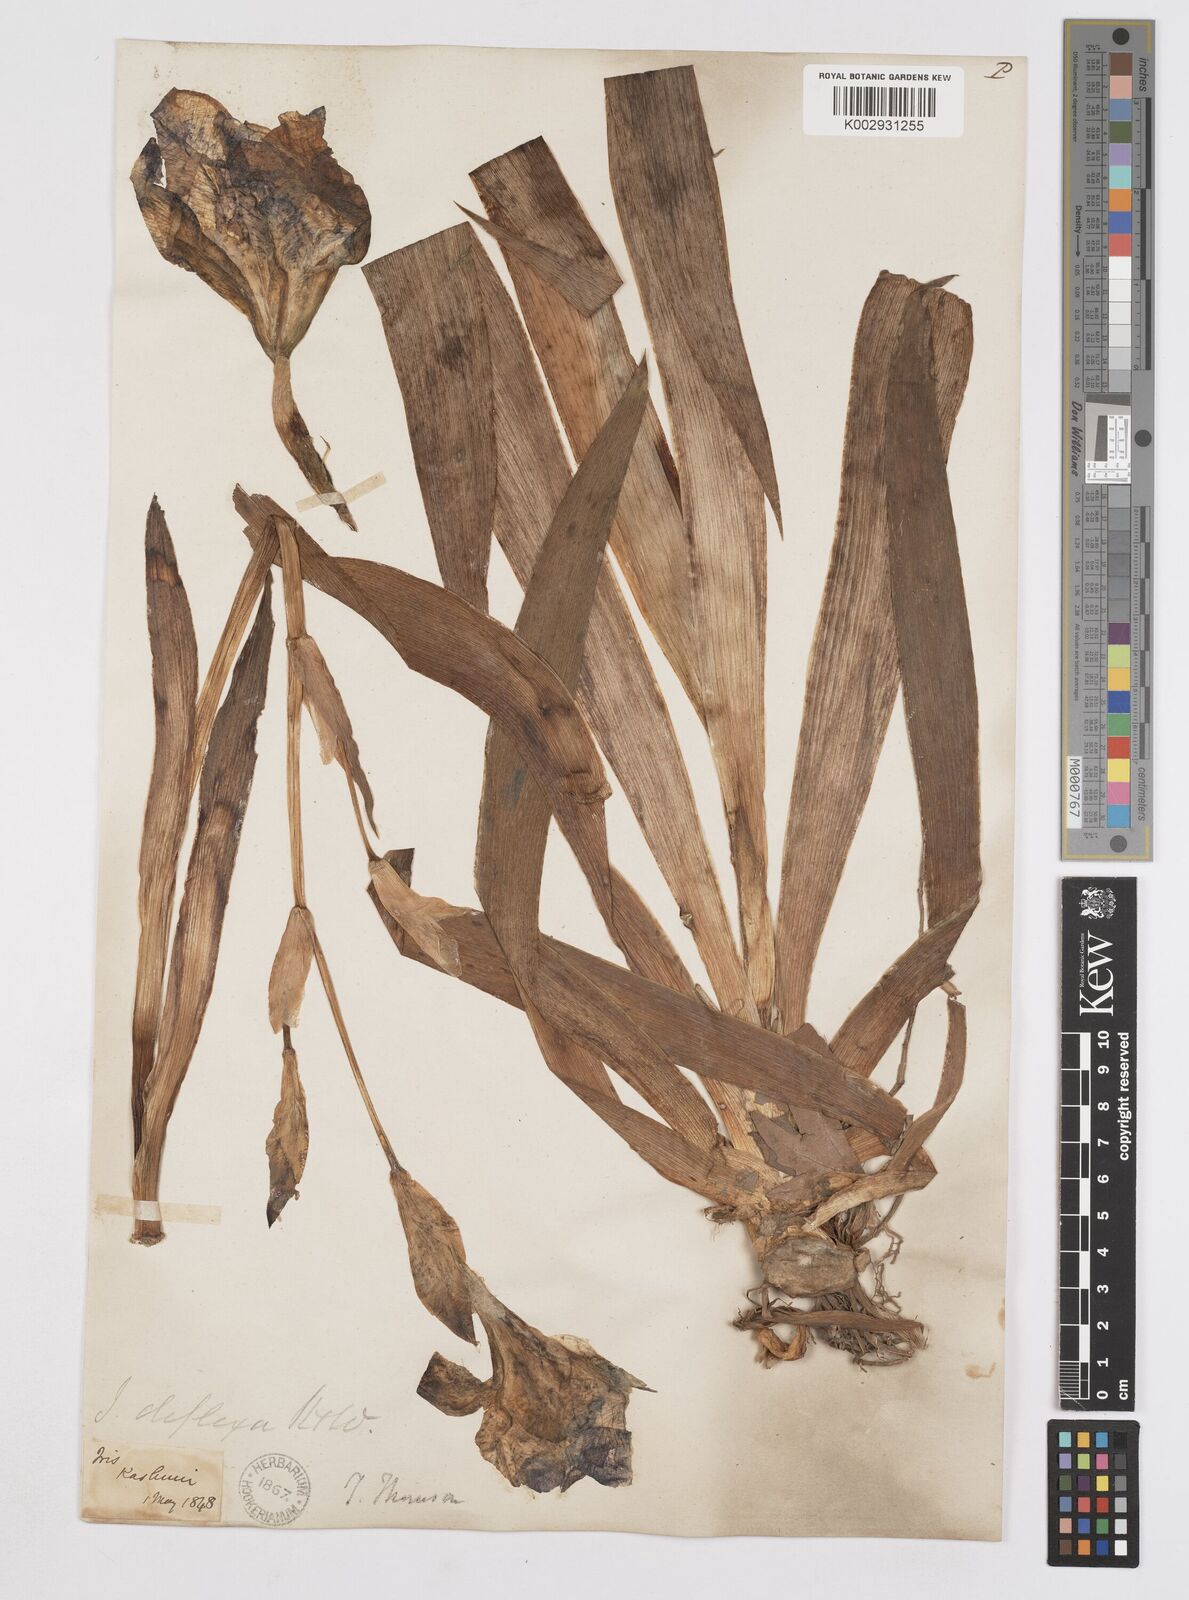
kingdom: Plantae
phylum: Tracheophyta
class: Liliopsida
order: Asparagales
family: Iridaceae
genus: Iris
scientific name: Iris germanica
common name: German iris
